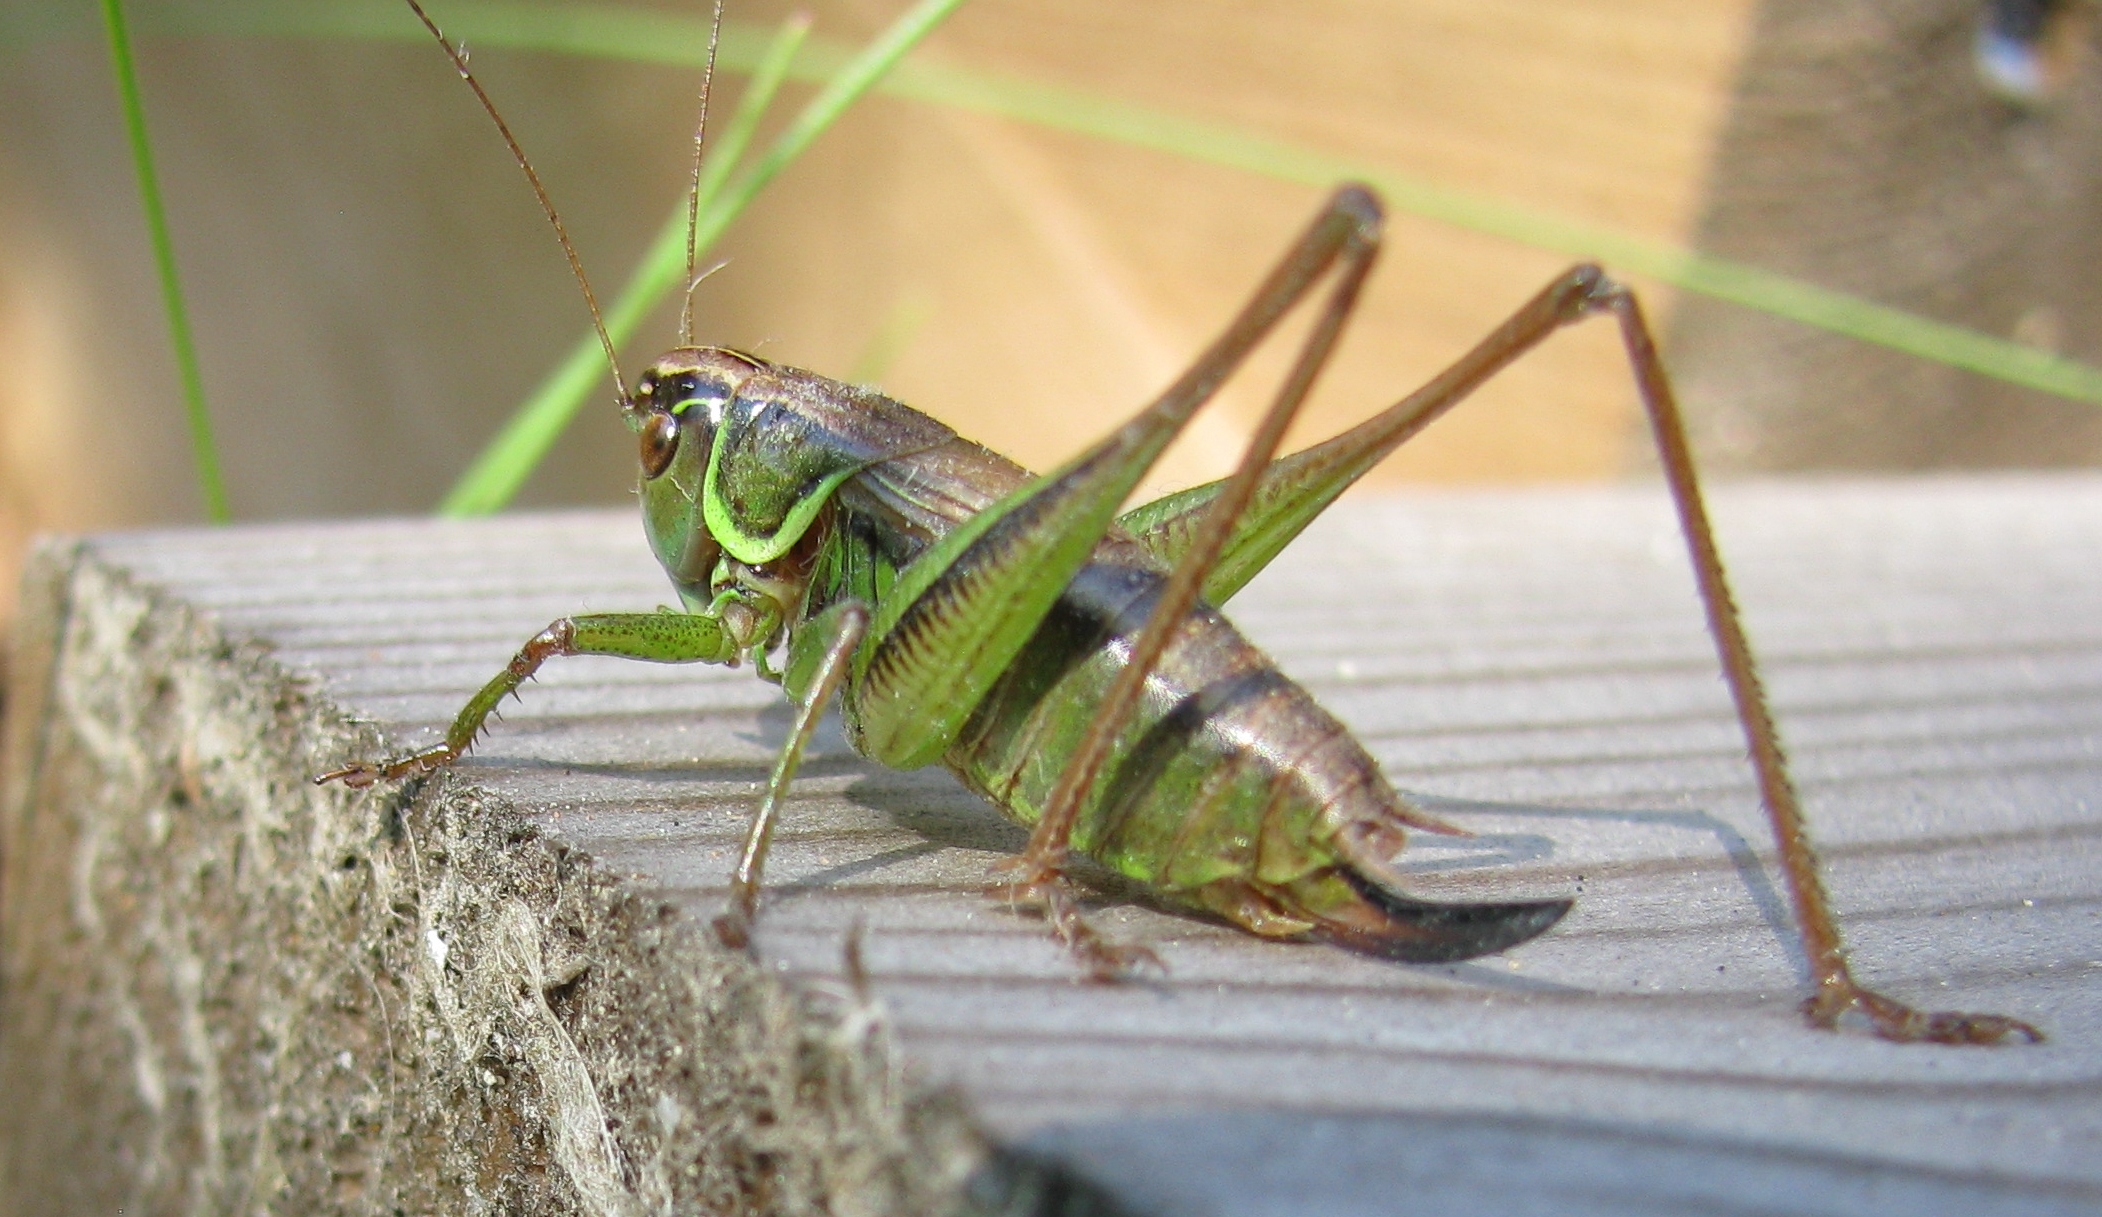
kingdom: Animalia
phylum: Arthropoda
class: Insecta
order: Orthoptera
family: Tettigoniidae
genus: Roeseliana
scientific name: Roeseliana roeselii
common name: Roesel's bush cricket
